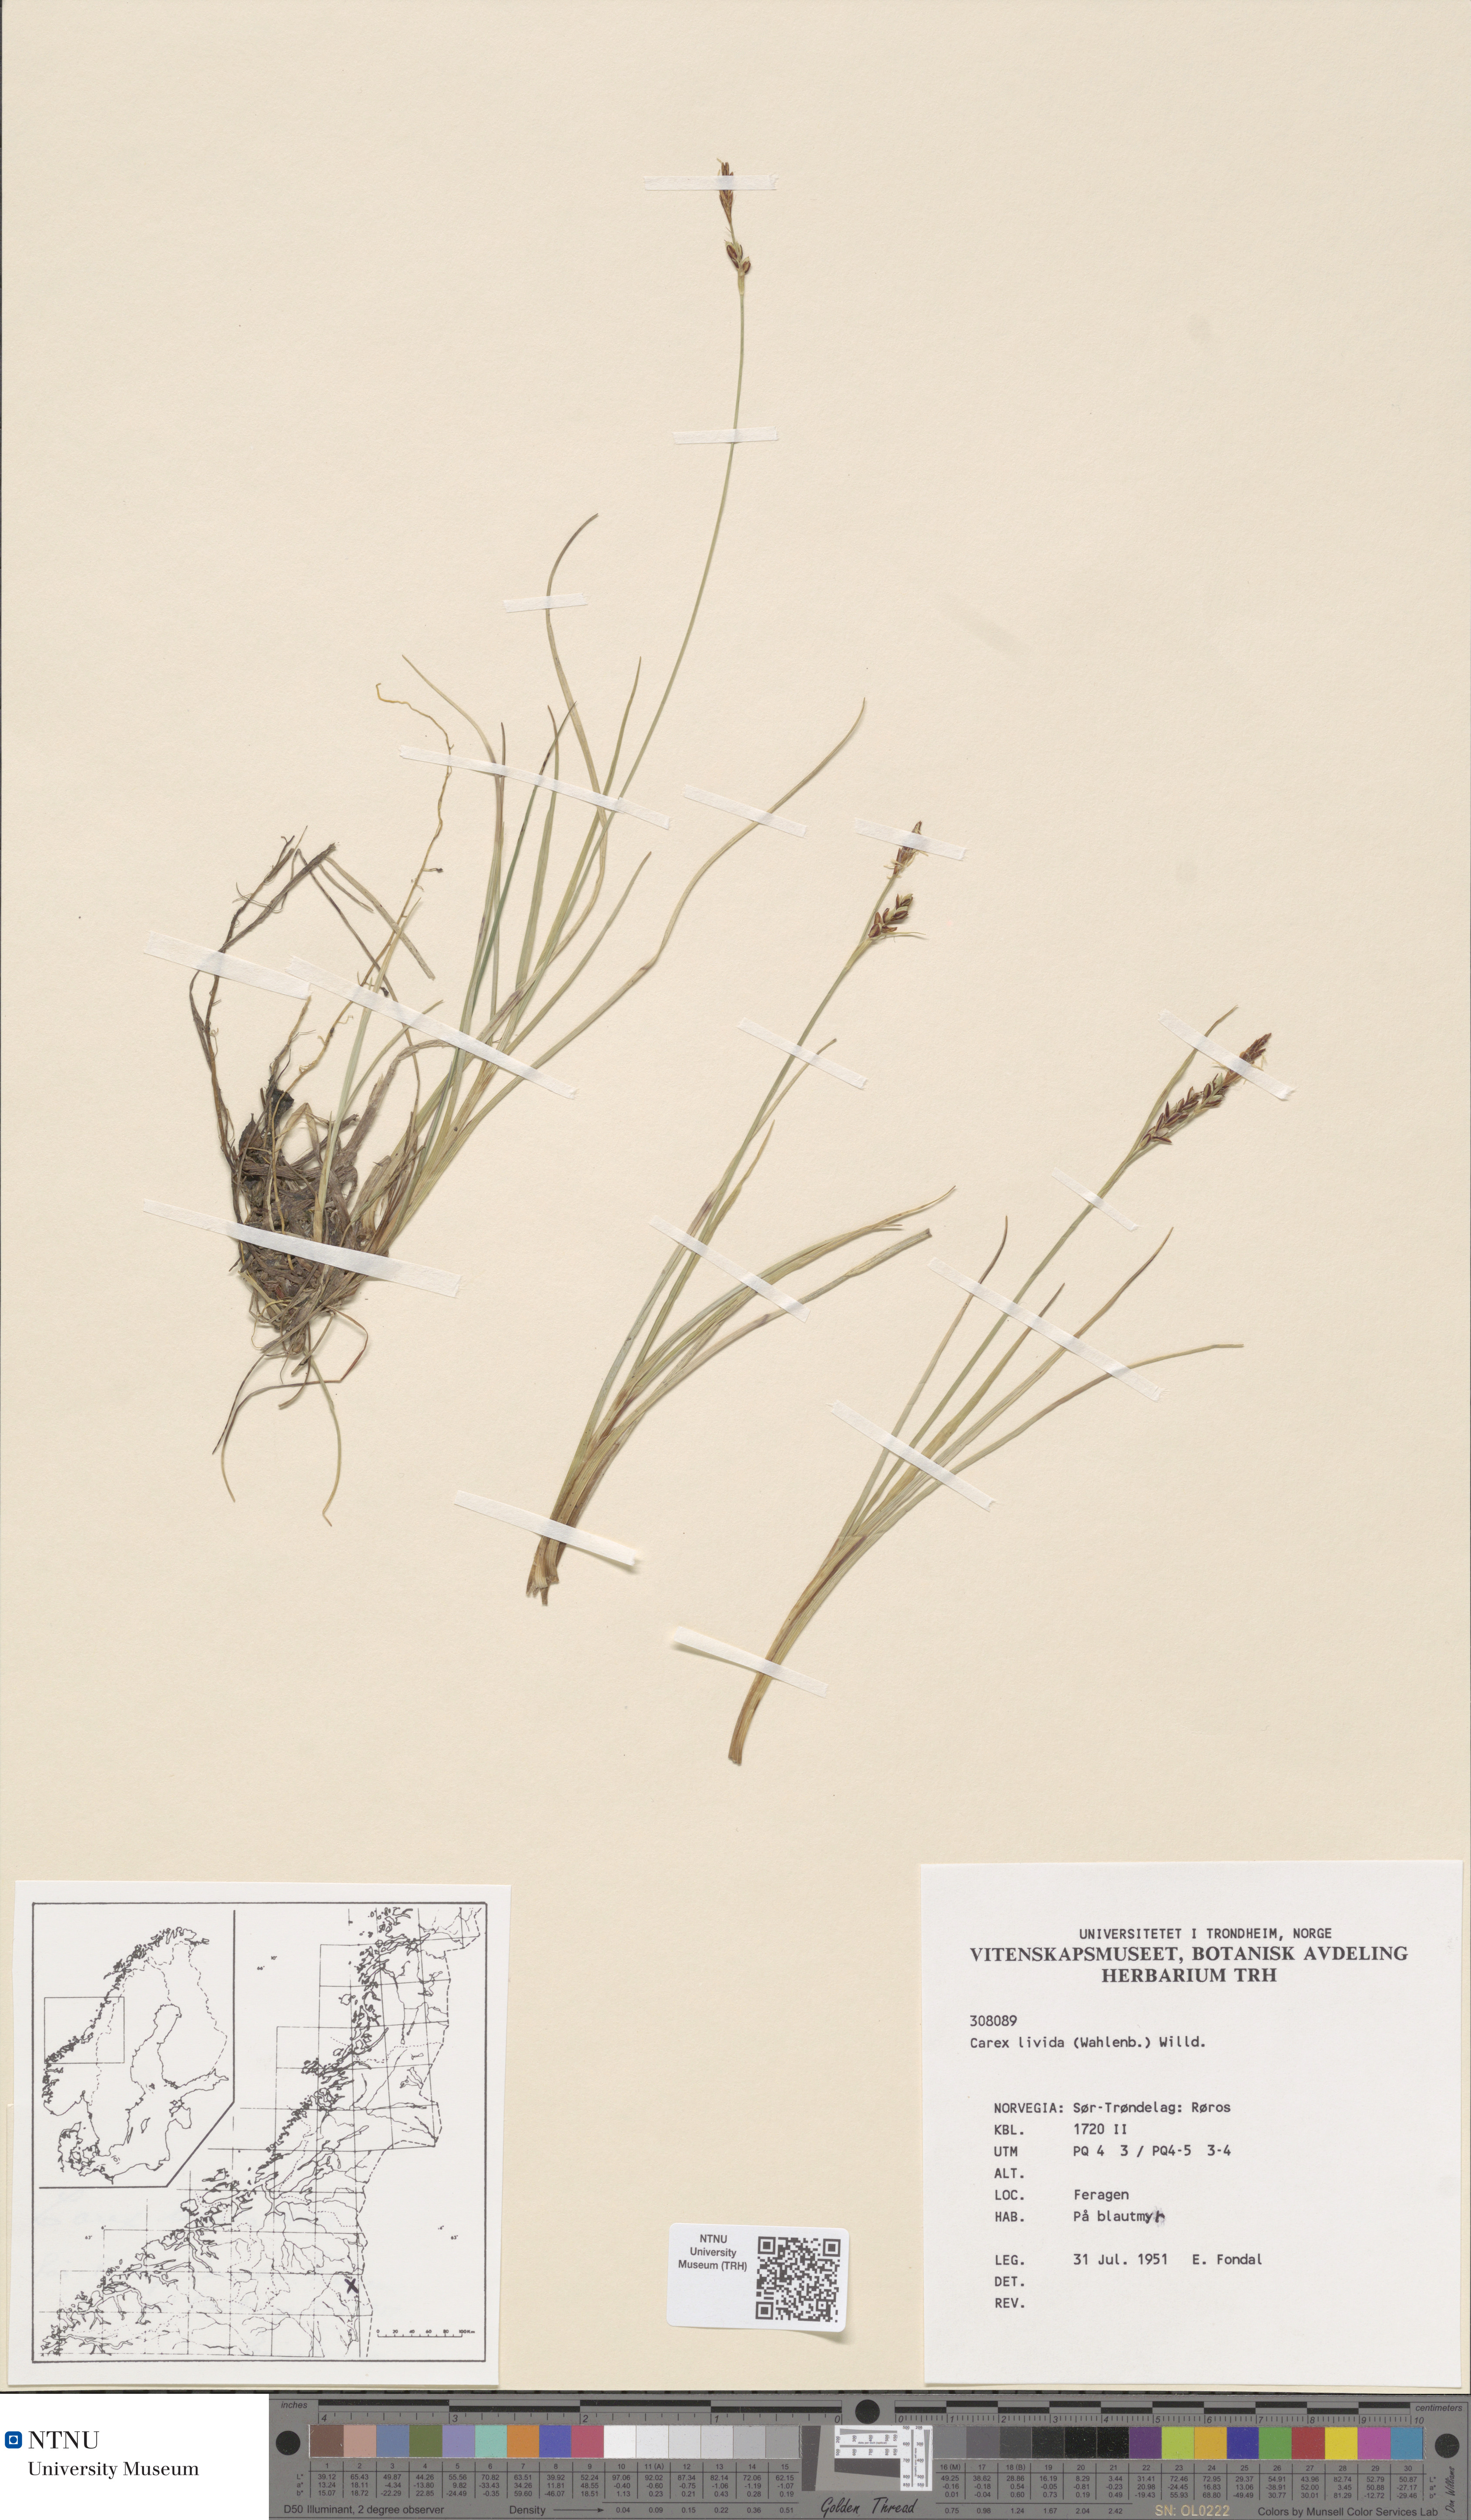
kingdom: Plantae
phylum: Tracheophyta
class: Liliopsida
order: Poales
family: Cyperaceae
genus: Carex
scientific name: Carex livida
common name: Livid sedge
